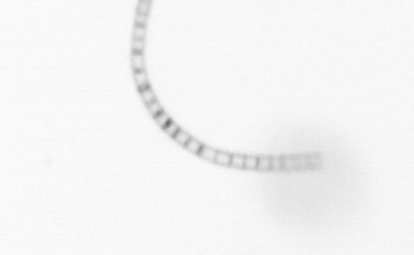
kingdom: Chromista
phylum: Ochrophyta
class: Bacillariophyceae
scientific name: Bacillariophyceae
